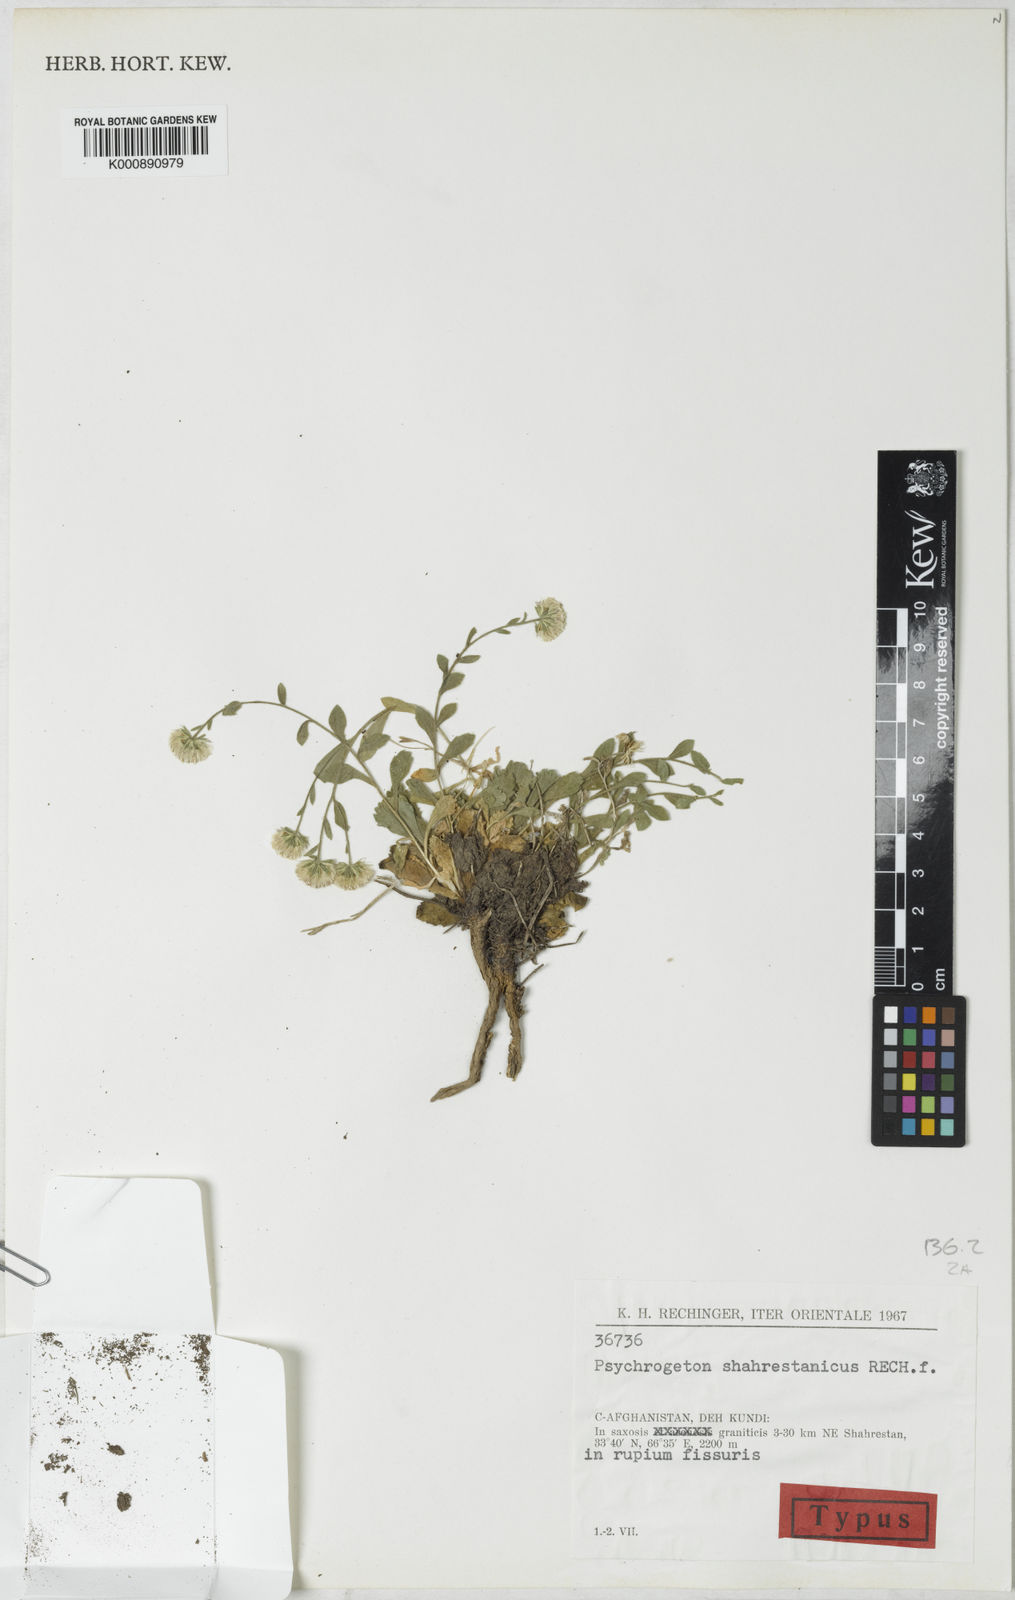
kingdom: Plantae
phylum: Tracheophyta
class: Magnoliopsida
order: Asterales
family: Asteraceae
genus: Psychrogeton
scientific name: Psychrogeton shahrestanicus
